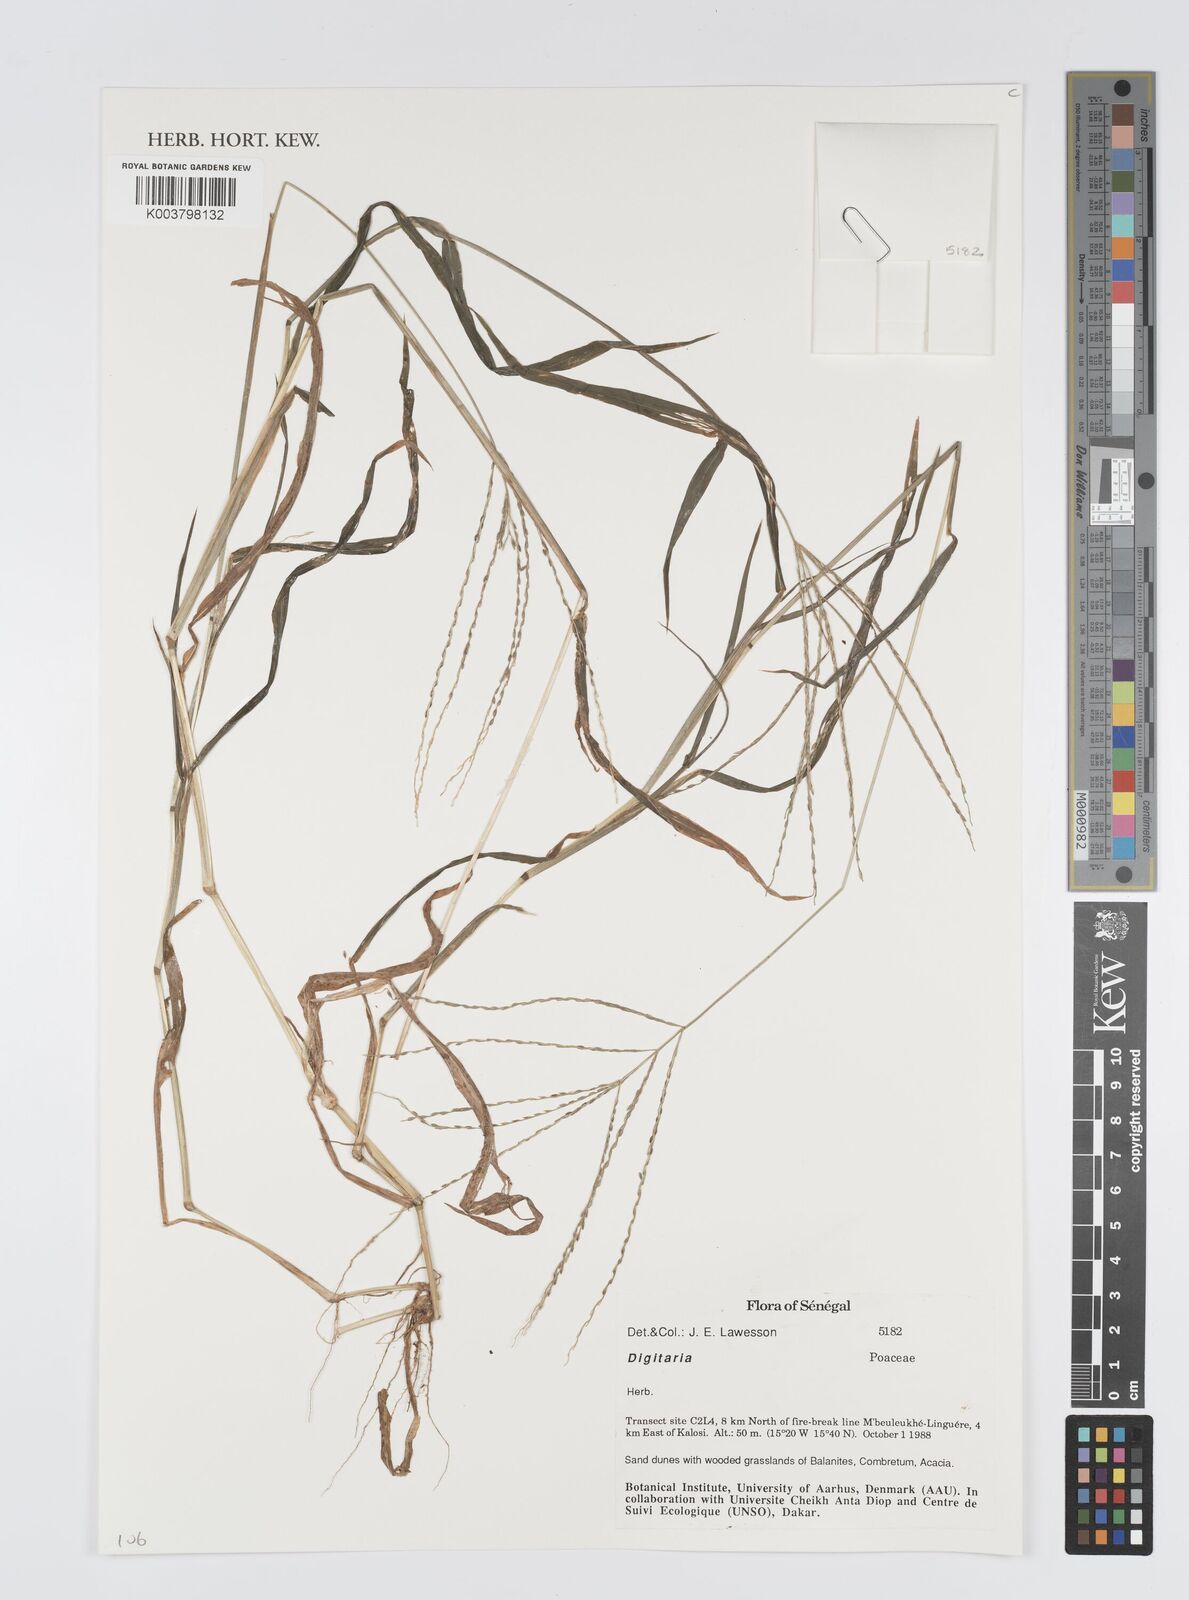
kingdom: Plantae
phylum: Tracheophyta
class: Liliopsida
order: Poales
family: Poaceae
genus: Digitaria
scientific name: Digitaria
